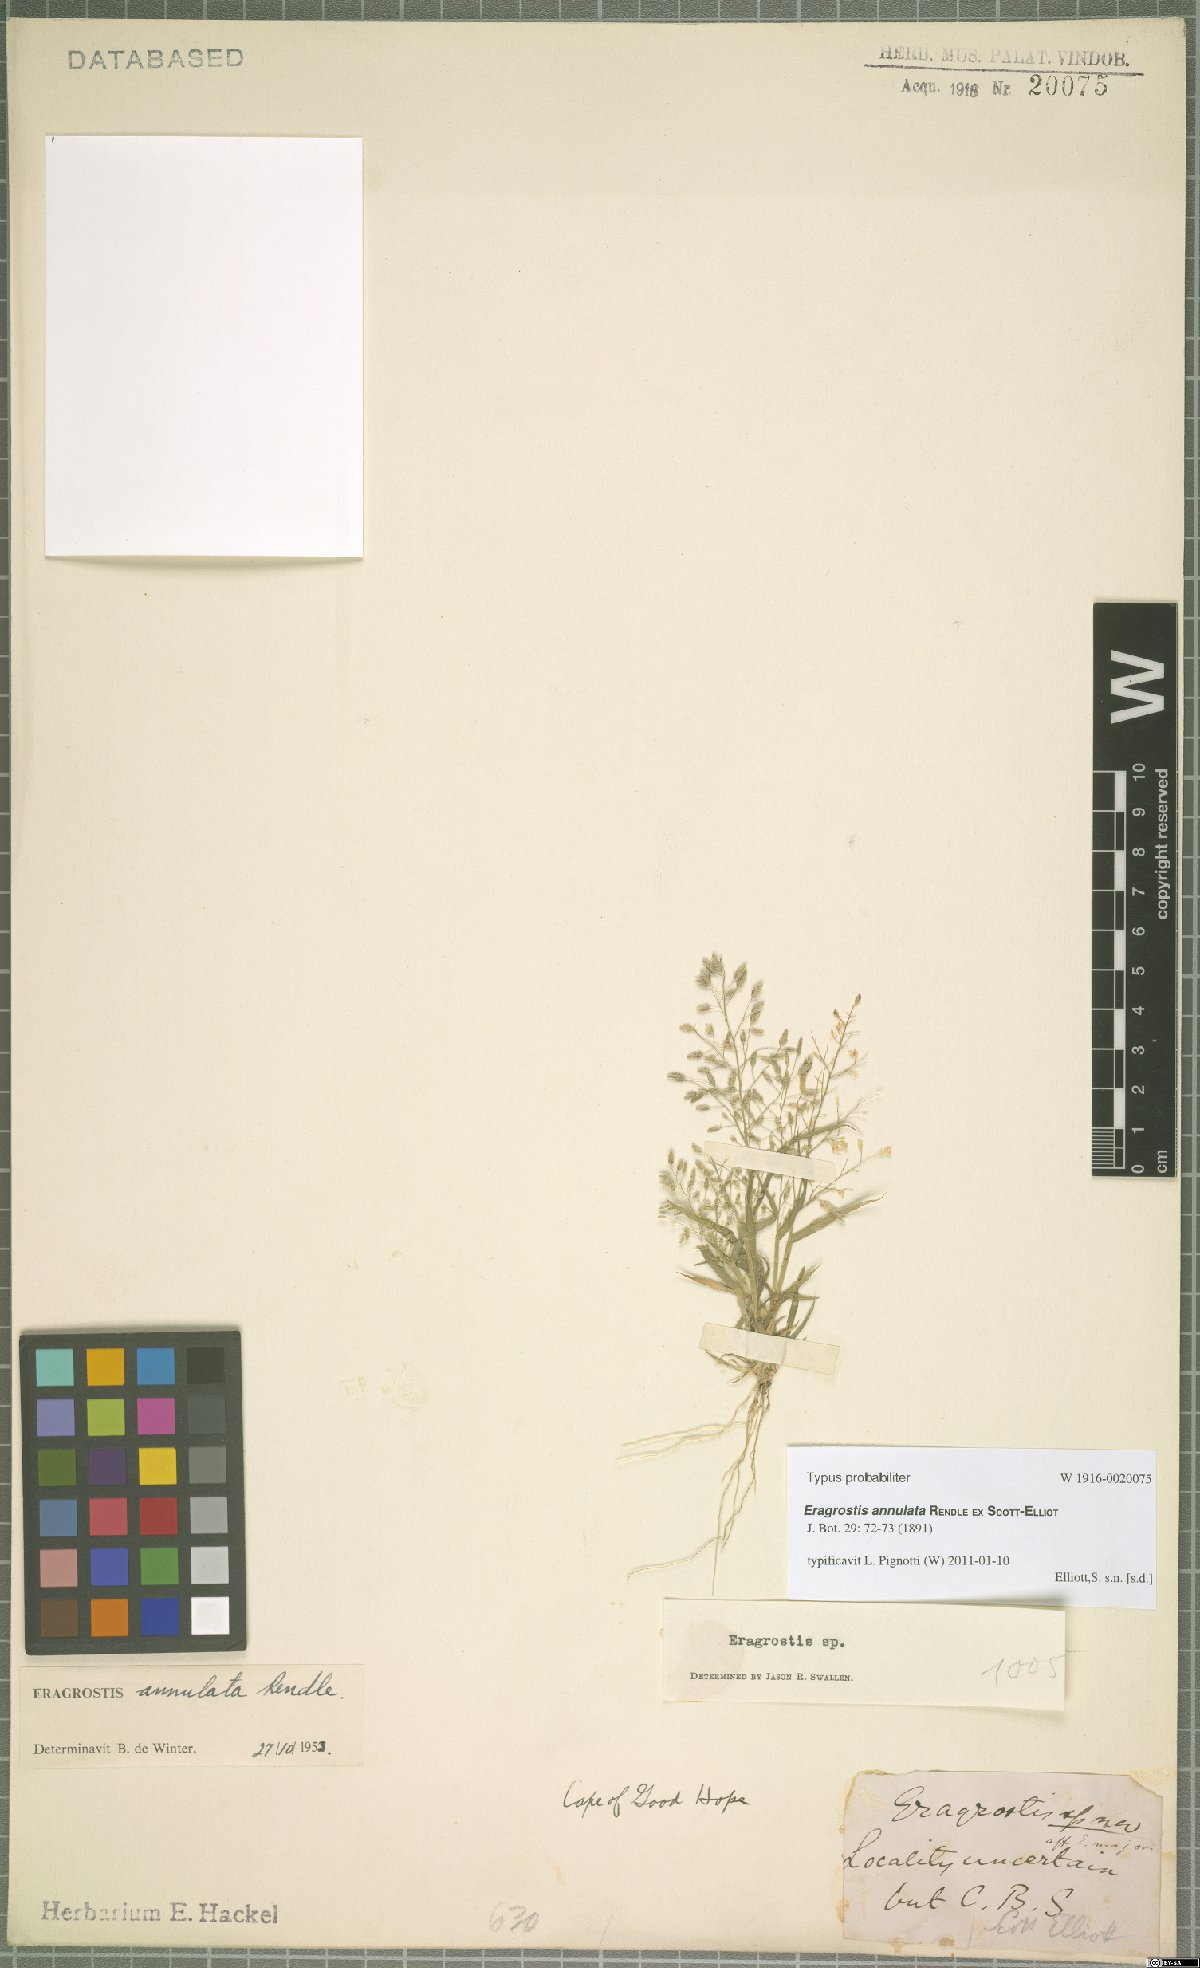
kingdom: Plantae
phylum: Tracheophyta
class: Liliopsida
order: Poales
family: Poaceae
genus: Eragrostis
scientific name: Eragrostis annulata
